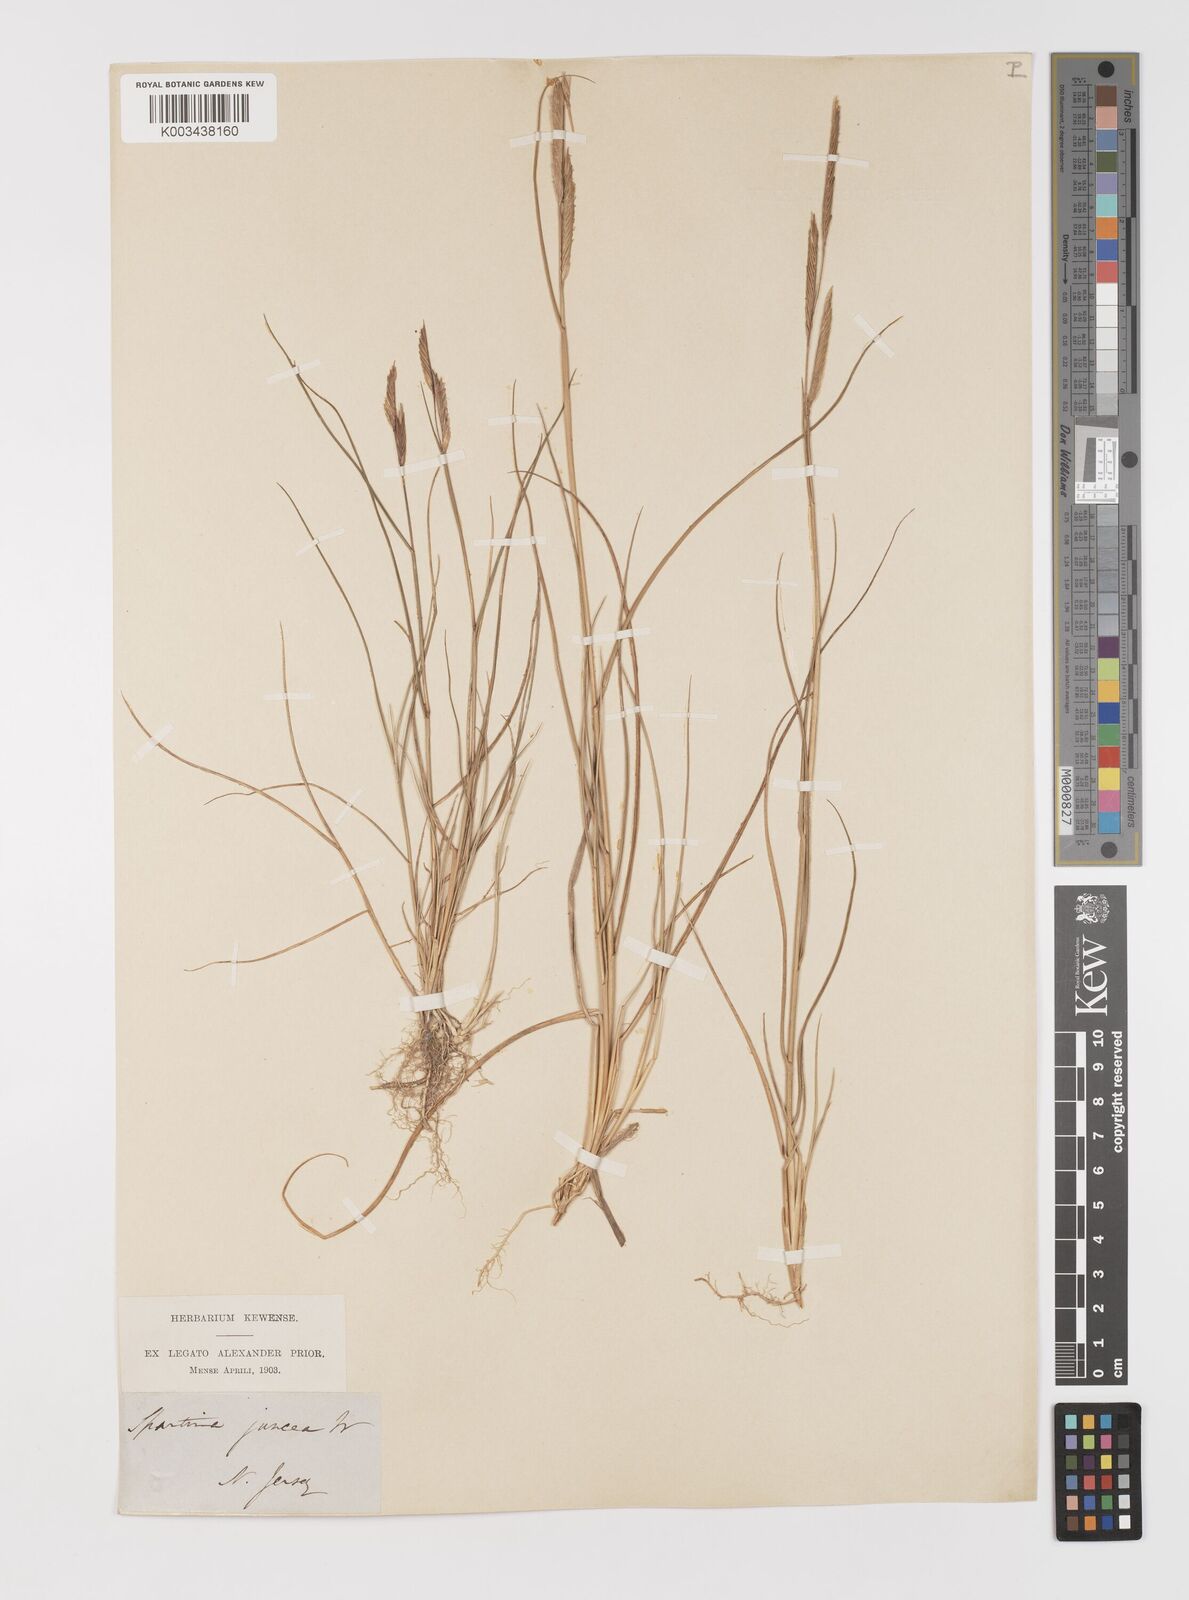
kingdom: Plantae
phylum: Tracheophyta
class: Liliopsida
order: Poales
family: Poaceae
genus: Sporobolus
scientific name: Sporobolus pumilus
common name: Highwater grass
